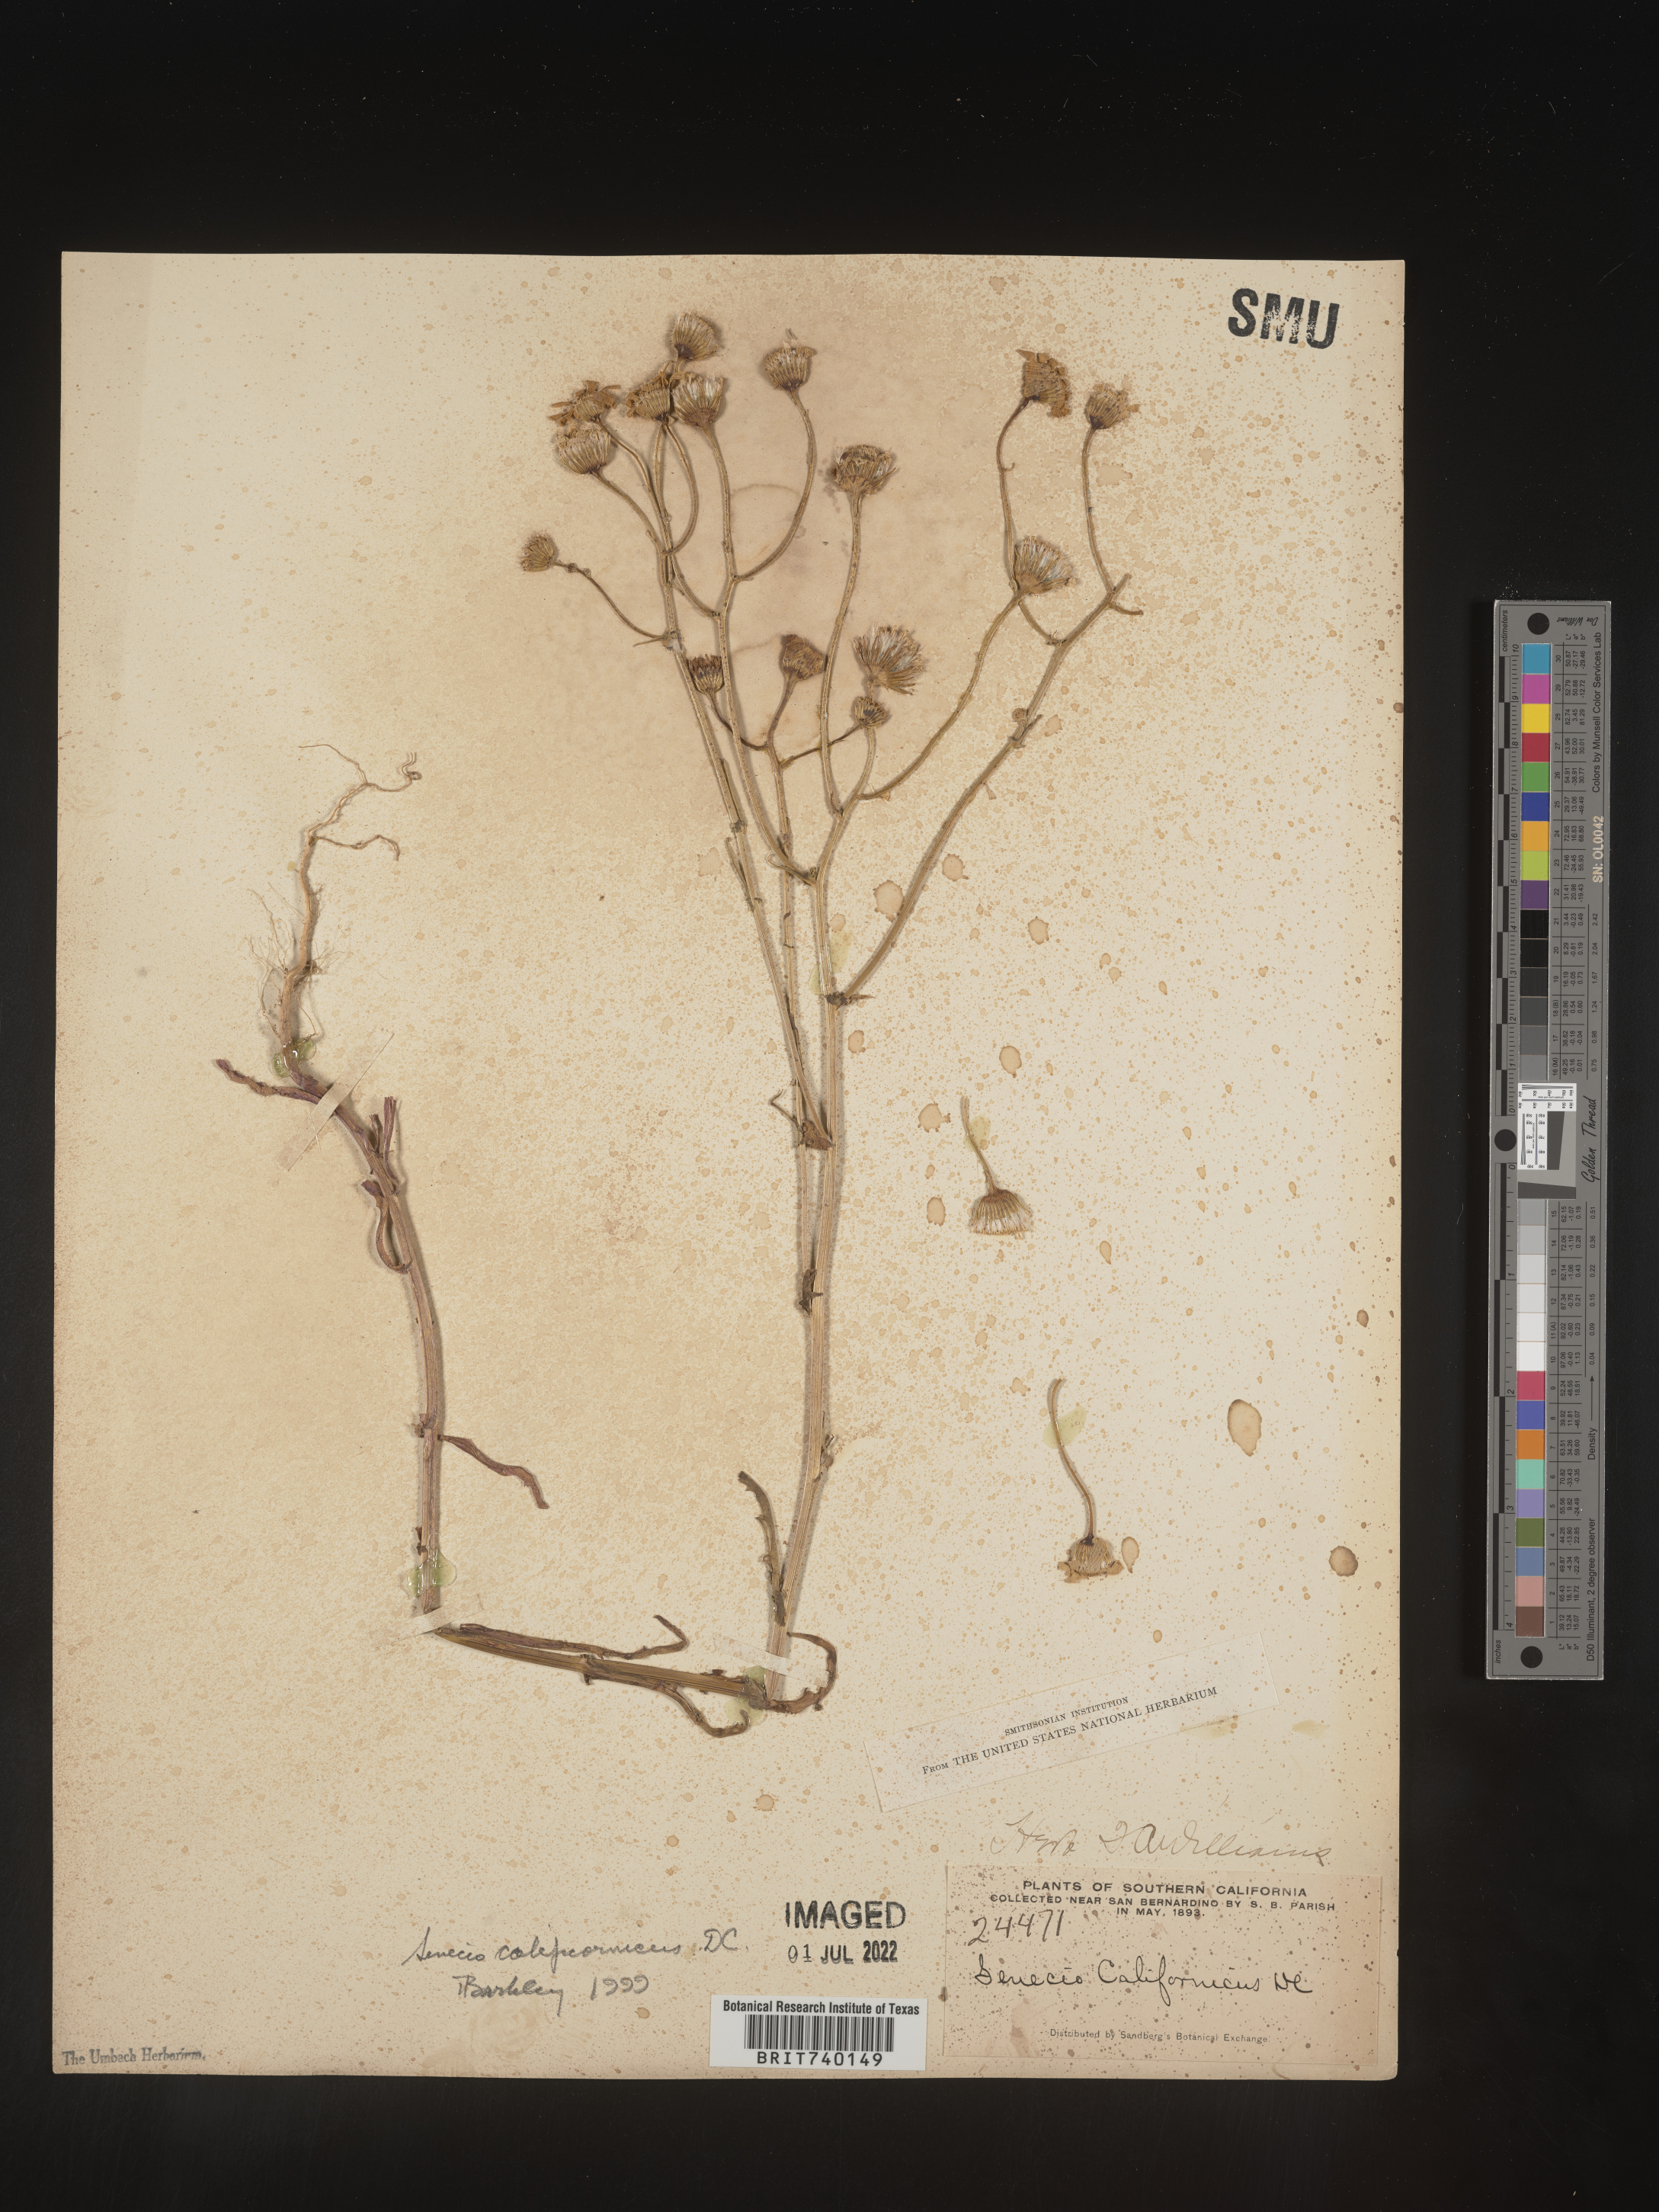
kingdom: Plantae
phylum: Tracheophyta
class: Magnoliopsida
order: Asterales
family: Asteraceae
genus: Senecio
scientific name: Senecio californicus
